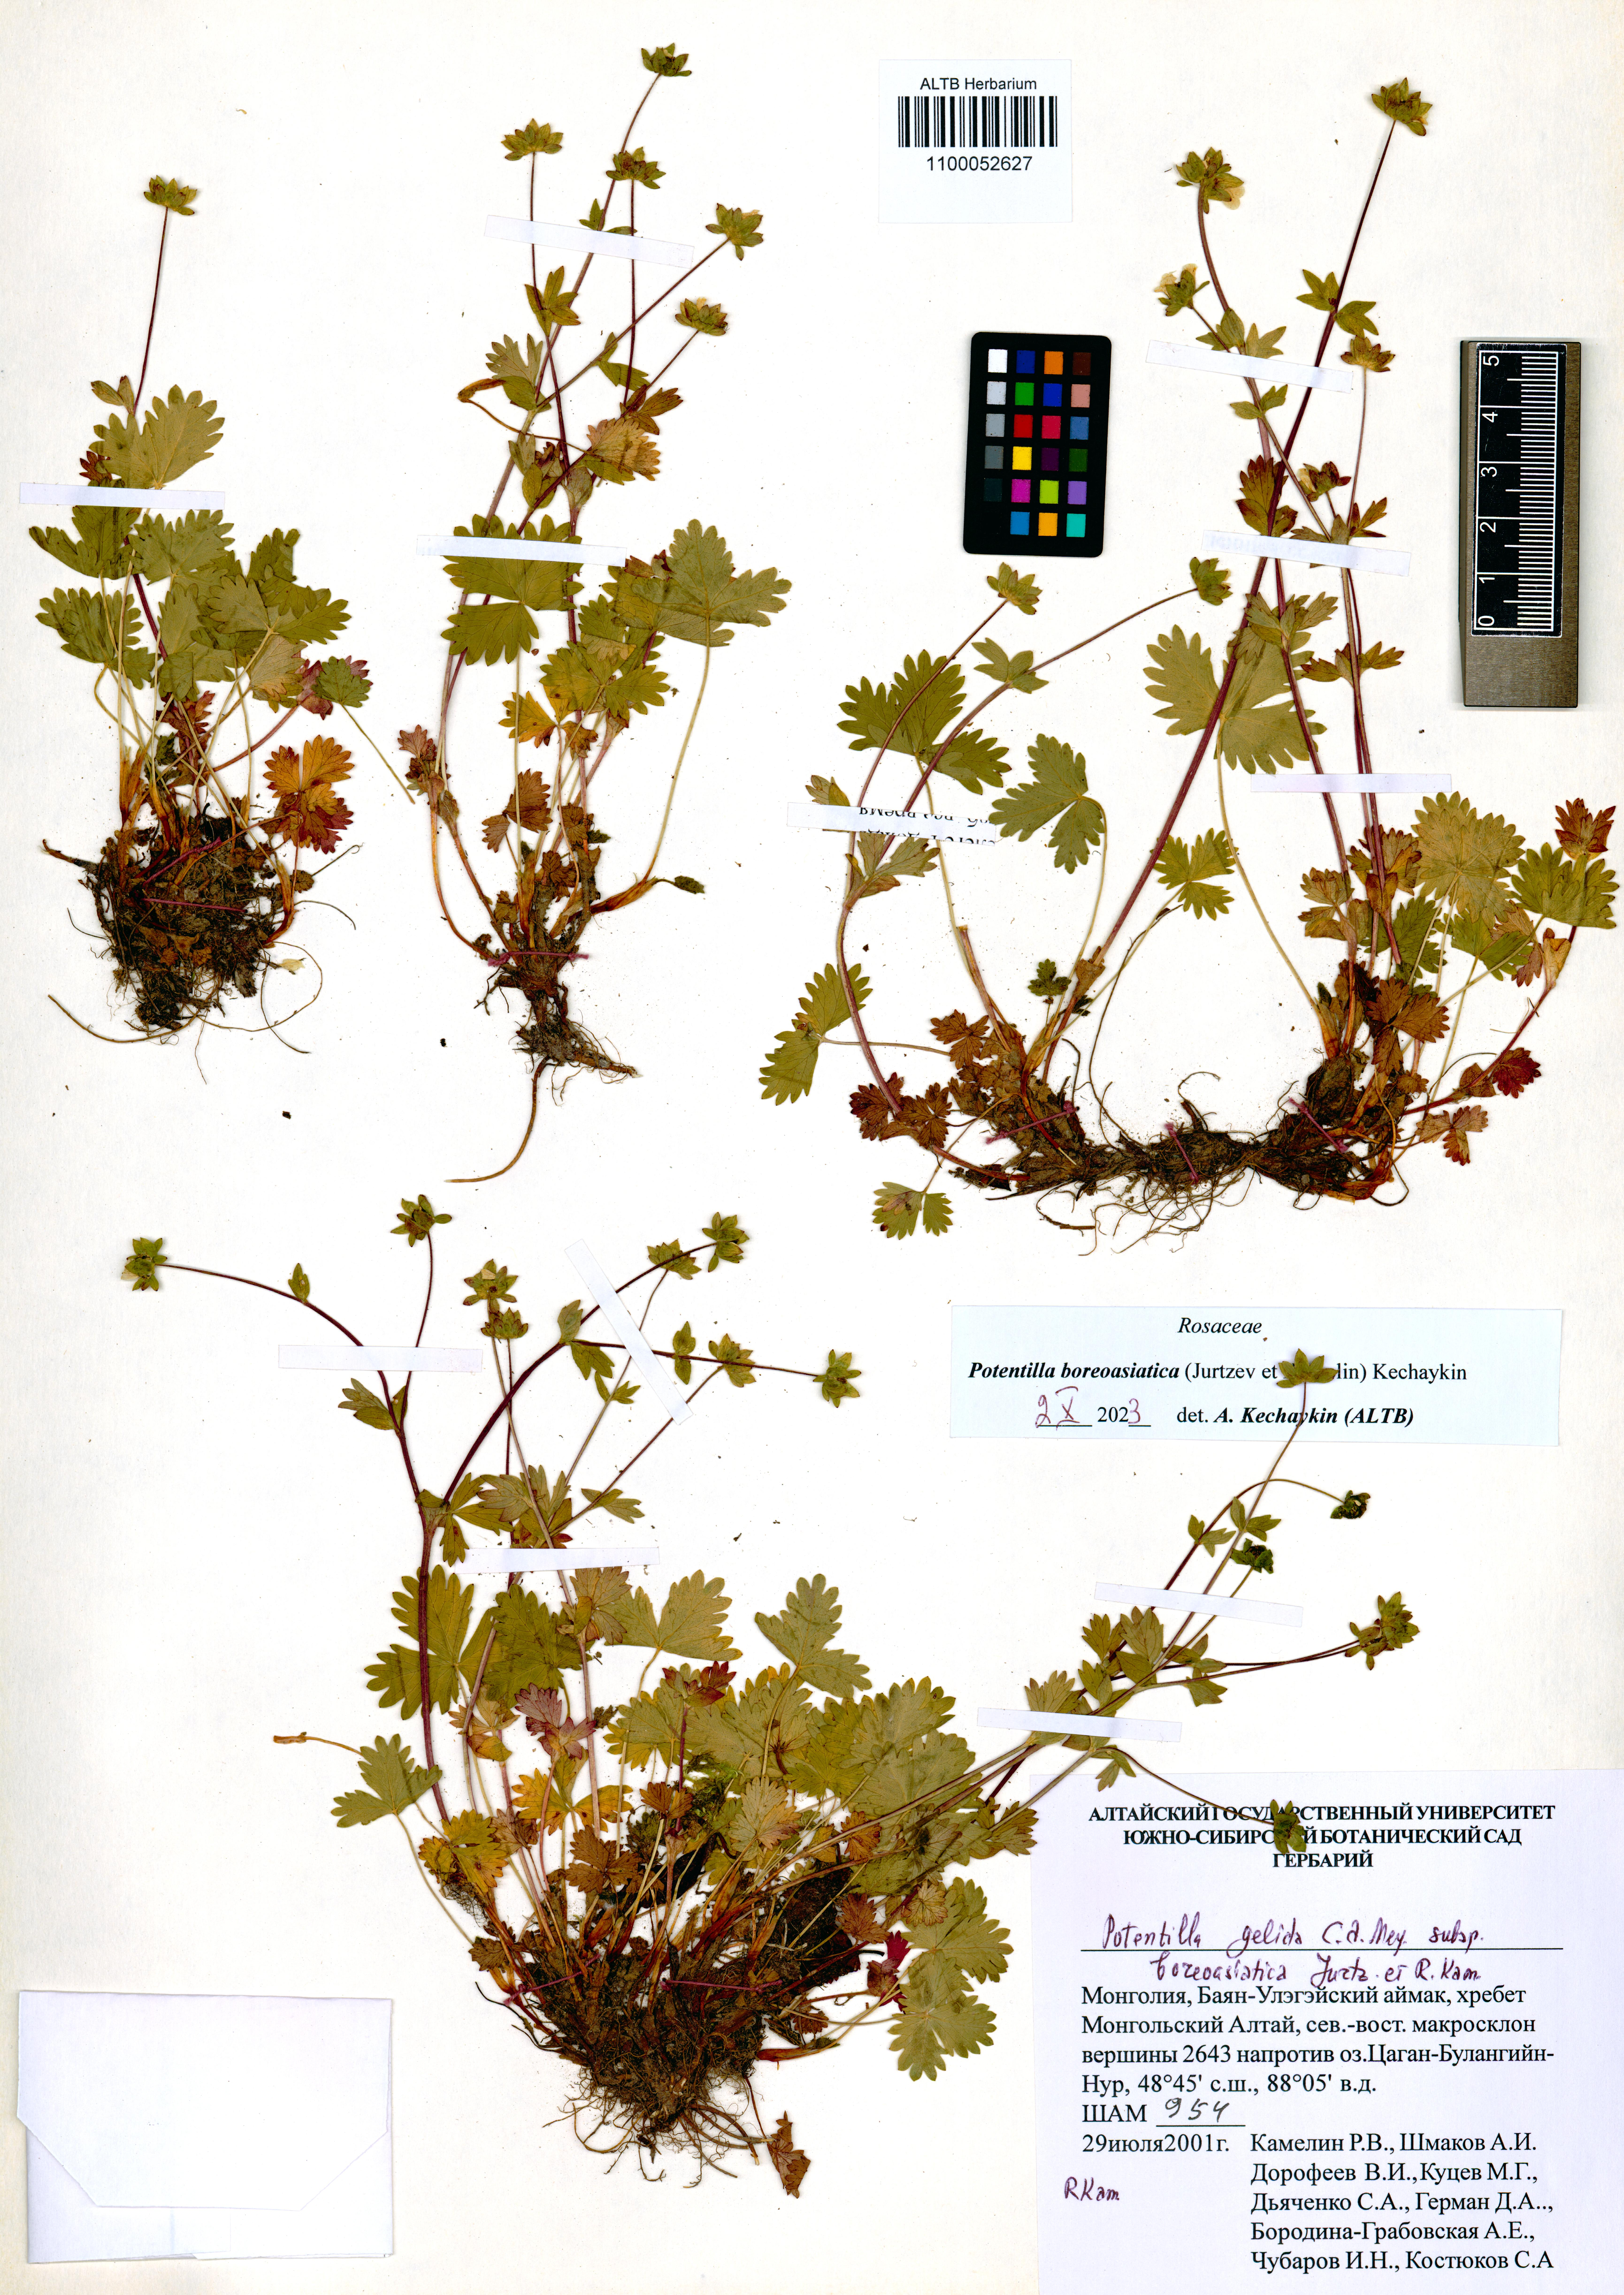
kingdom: Plantae
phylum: Tracheophyta
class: Magnoliopsida
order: Rosales
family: Rosaceae
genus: Potentilla
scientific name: Potentilla
